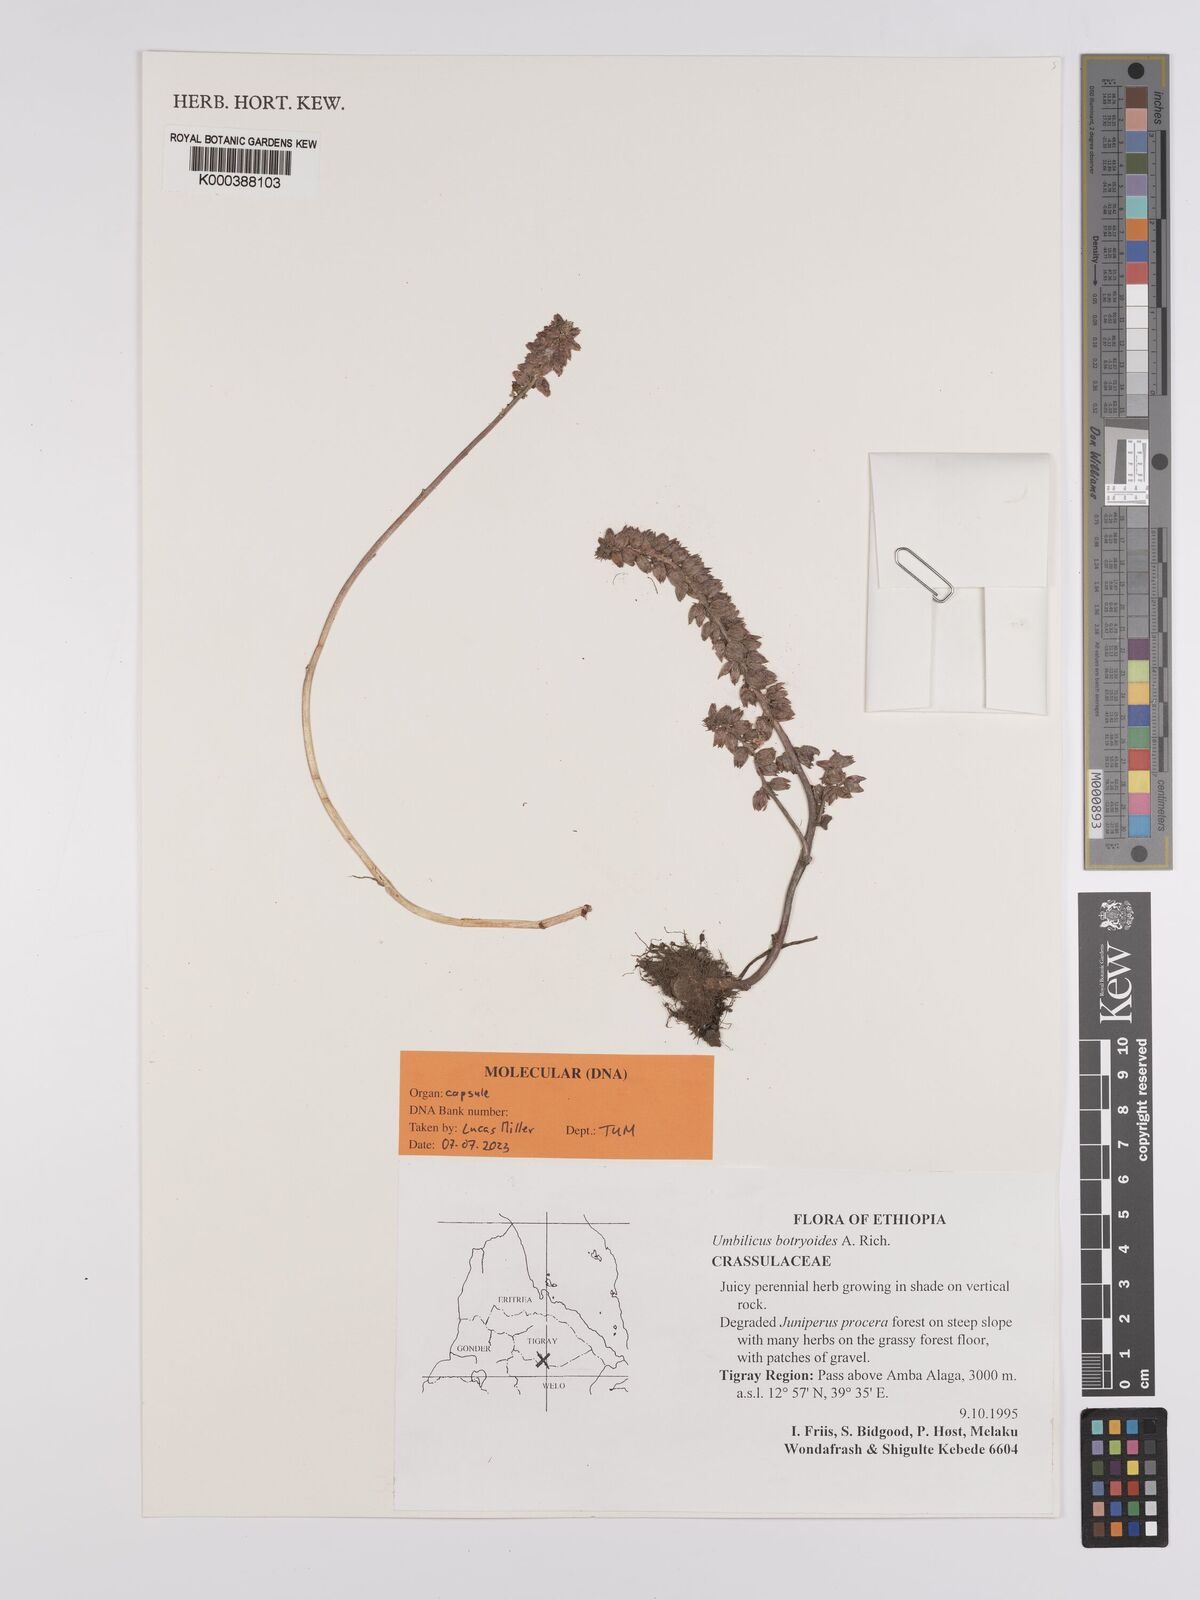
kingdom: Plantae
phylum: Tracheophyta
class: Magnoliopsida
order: Saxifragales
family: Crassulaceae
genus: Umbilicus
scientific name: Umbilicus botryoides
